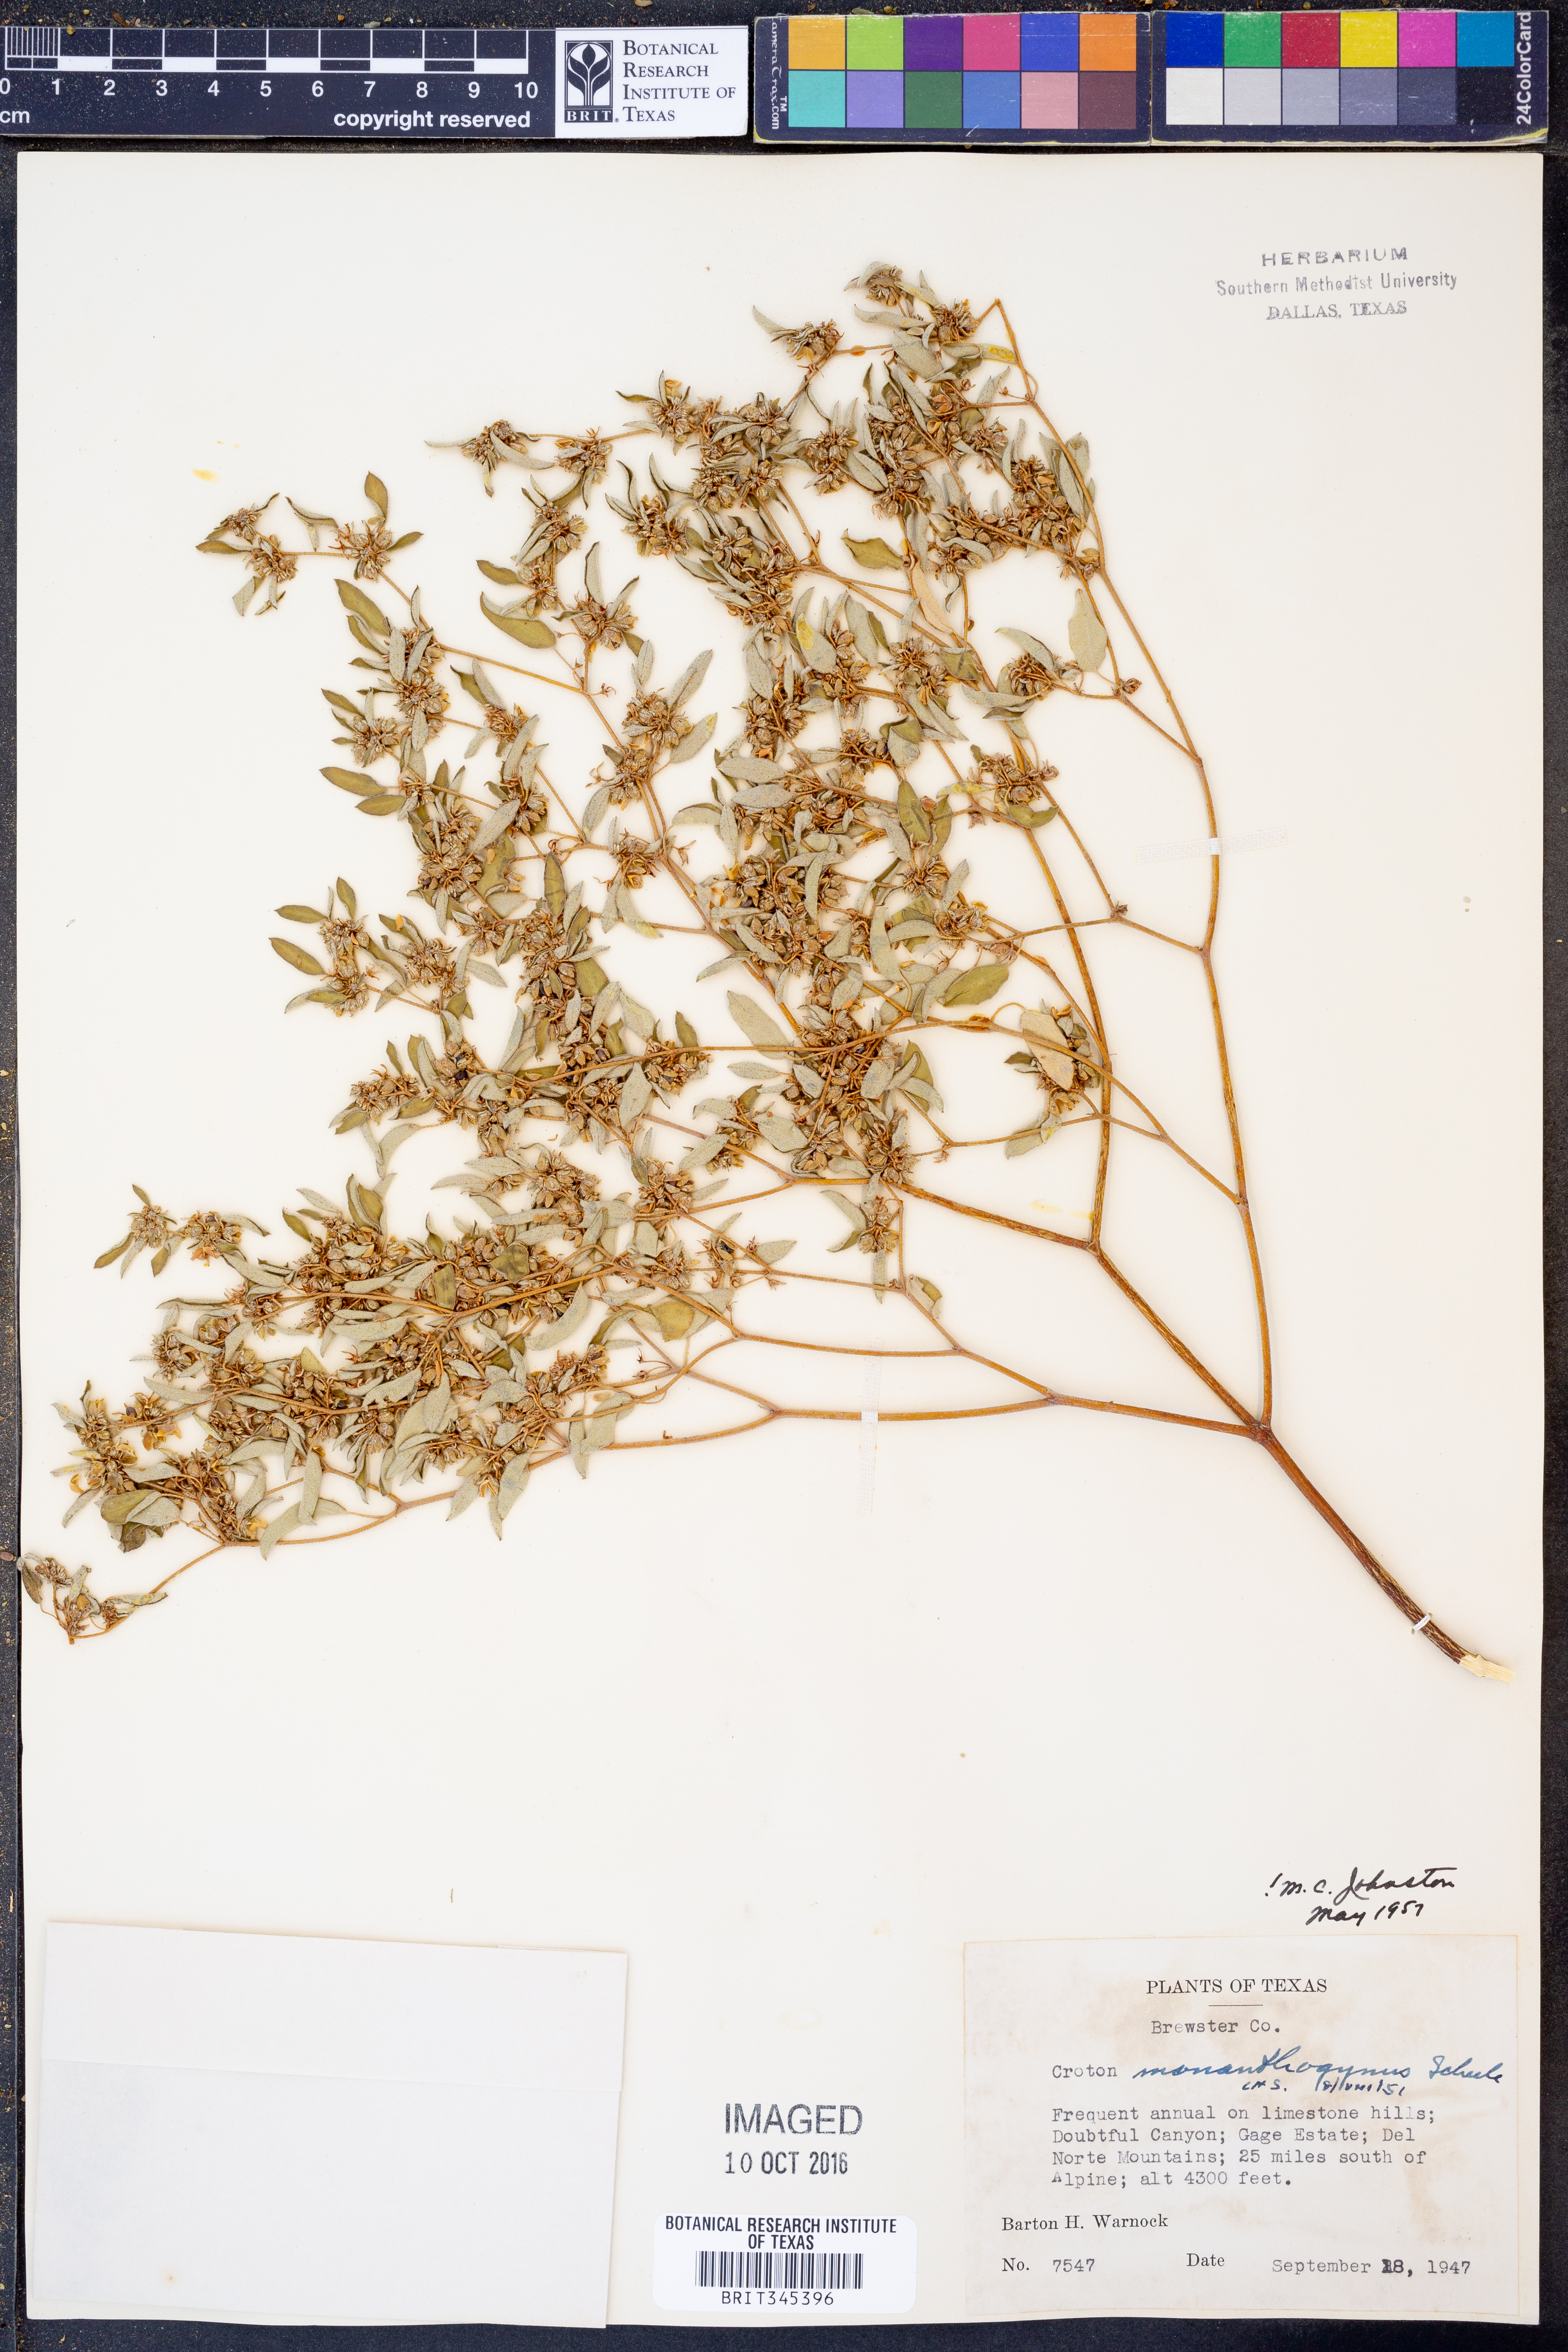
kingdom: Plantae
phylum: Tracheophyta
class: Magnoliopsida
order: Malpighiales
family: Euphorbiaceae
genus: Croton
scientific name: Croton monanthogynus
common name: One-seed croton
